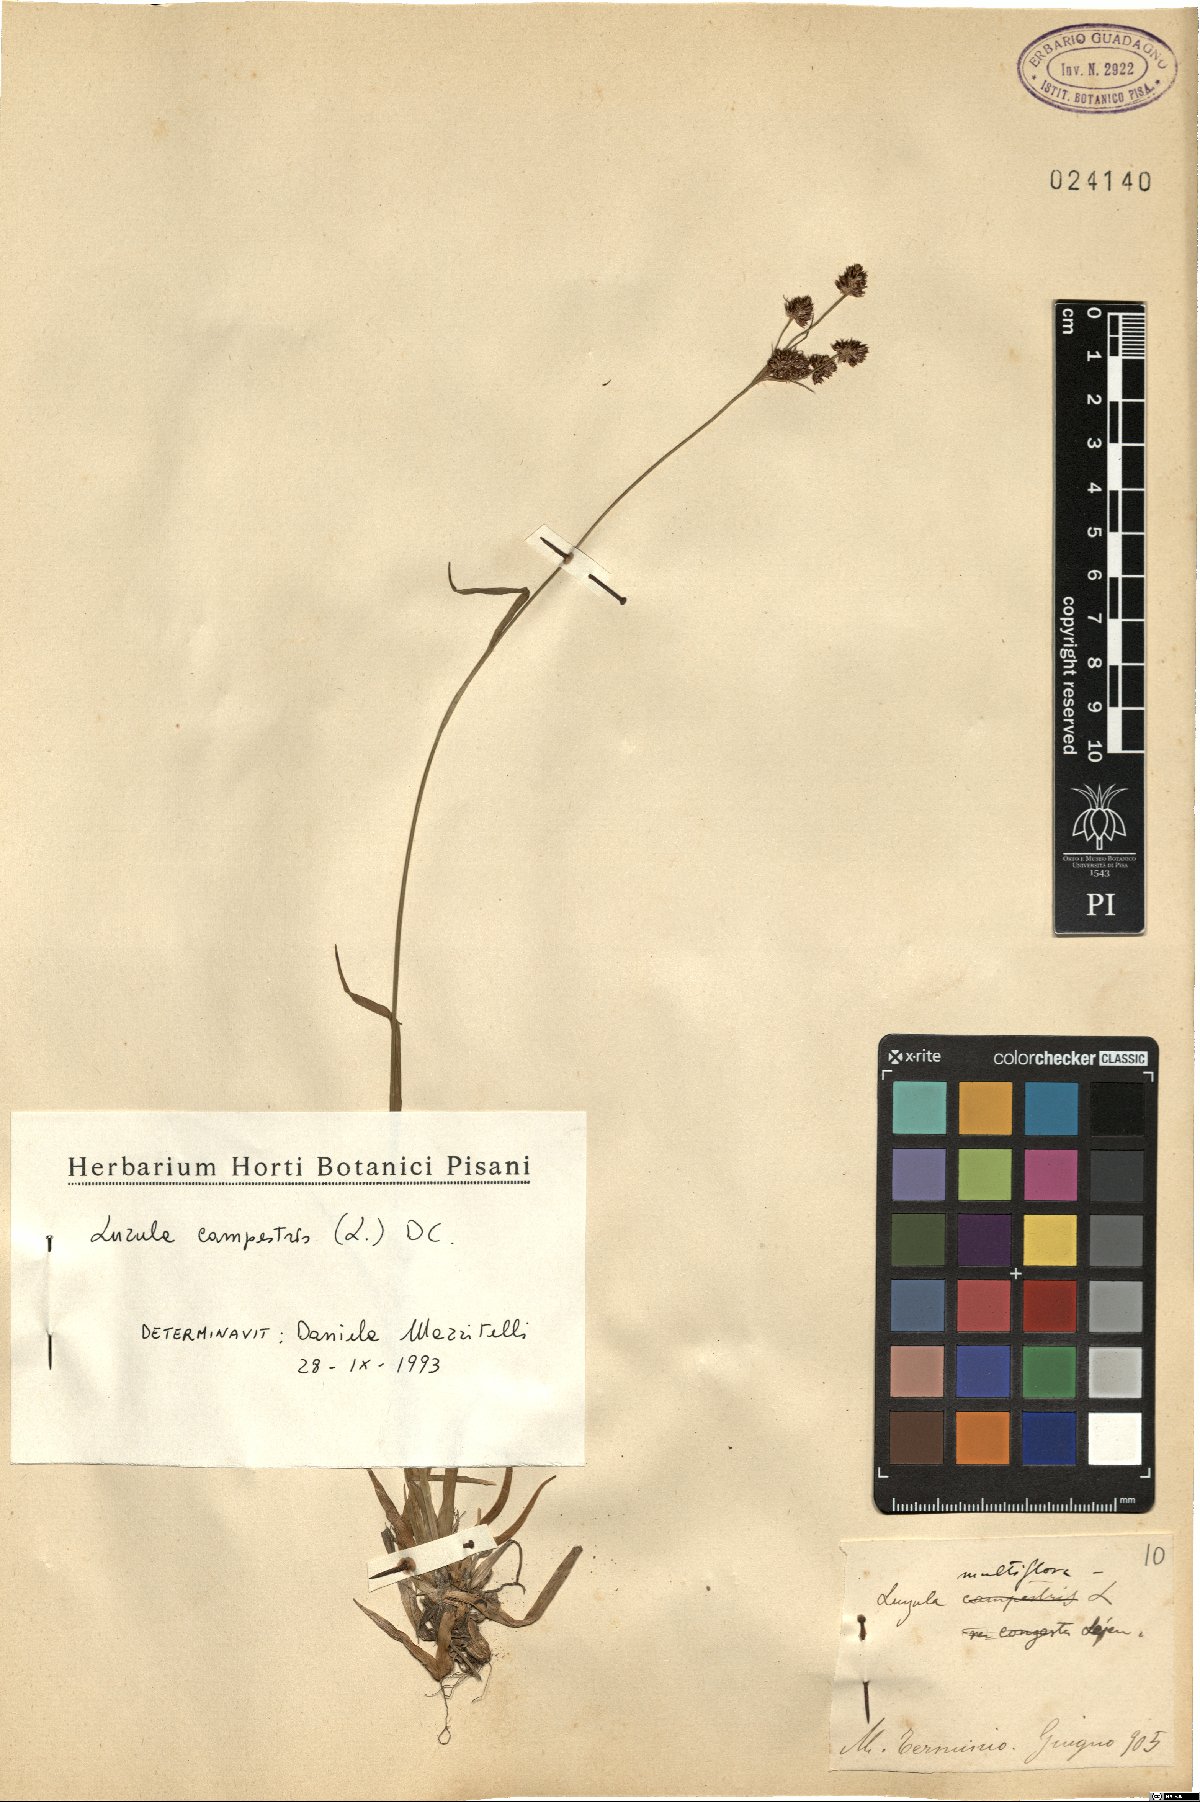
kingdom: Plantae
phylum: Tracheophyta
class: Liliopsida
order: Poales
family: Juncaceae
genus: Luzula
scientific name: Luzula campestris
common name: Field wood-rush
